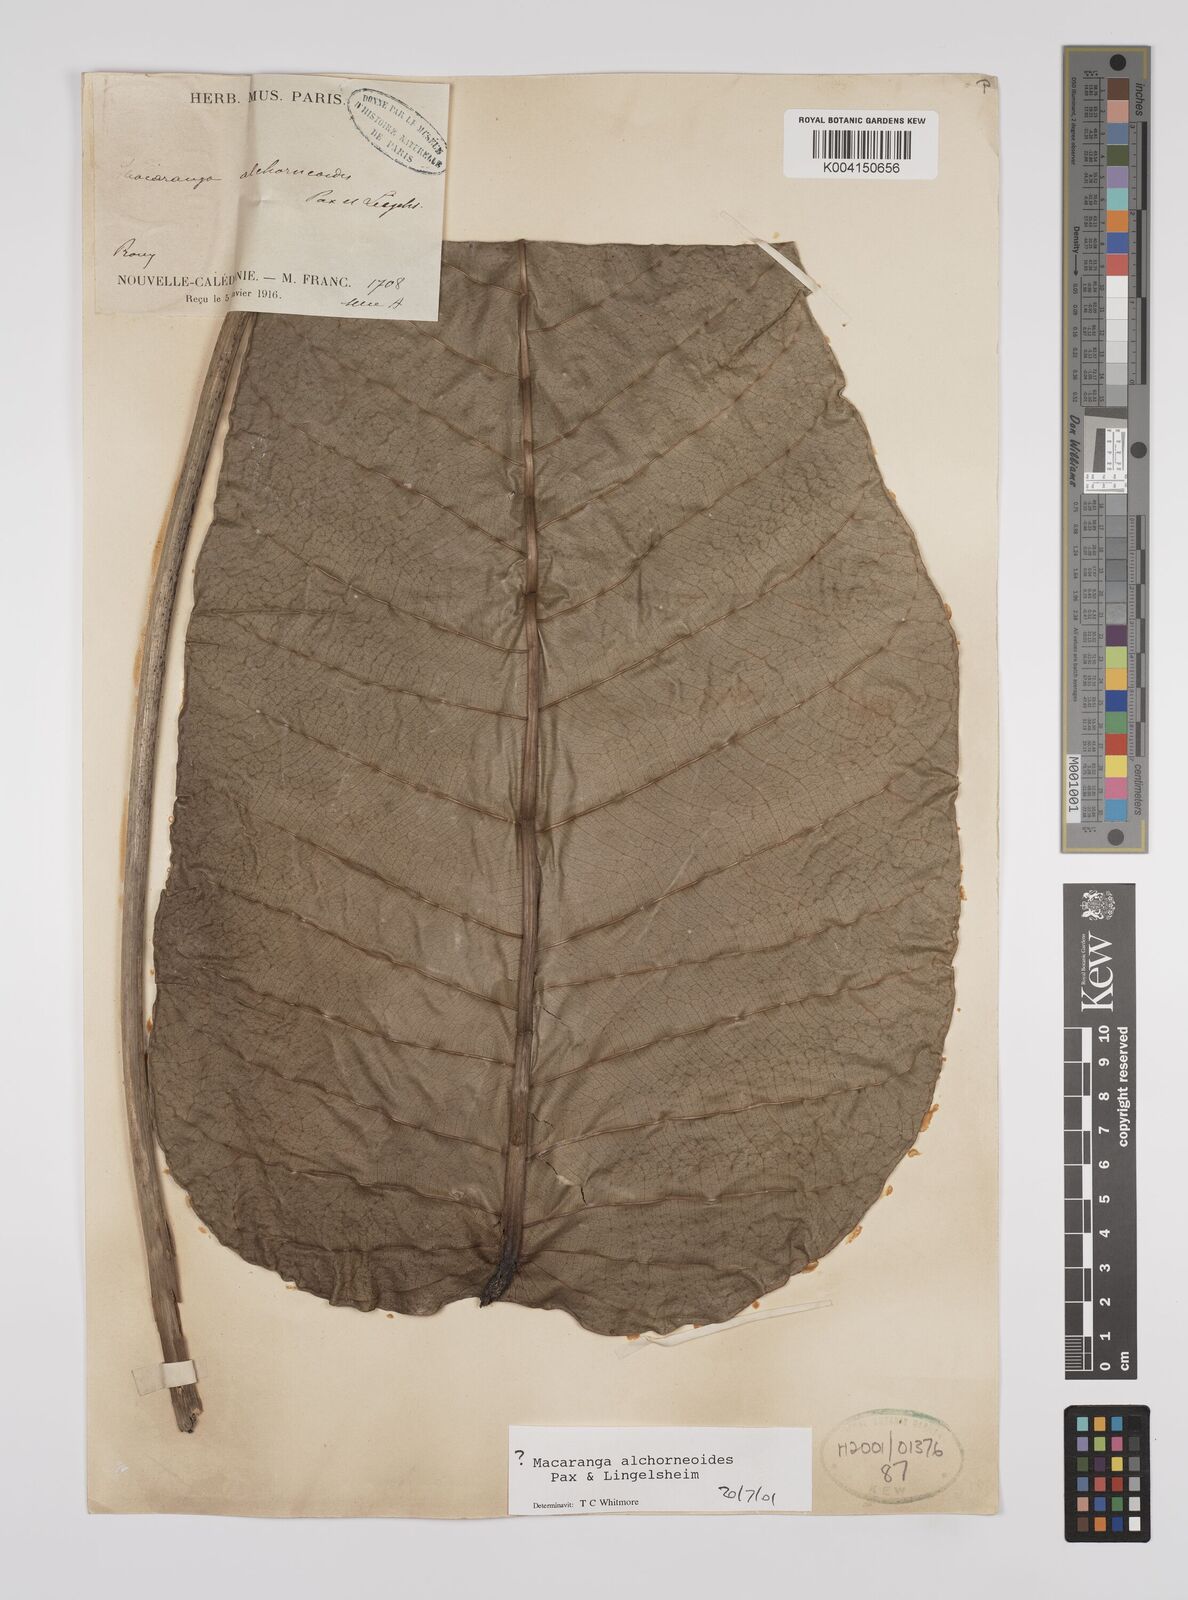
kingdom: Plantae
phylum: Tracheophyta
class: Magnoliopsida
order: Malpighiales
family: Euphorbiaceae
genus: Macaranga
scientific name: Macaranga alchorneoides
